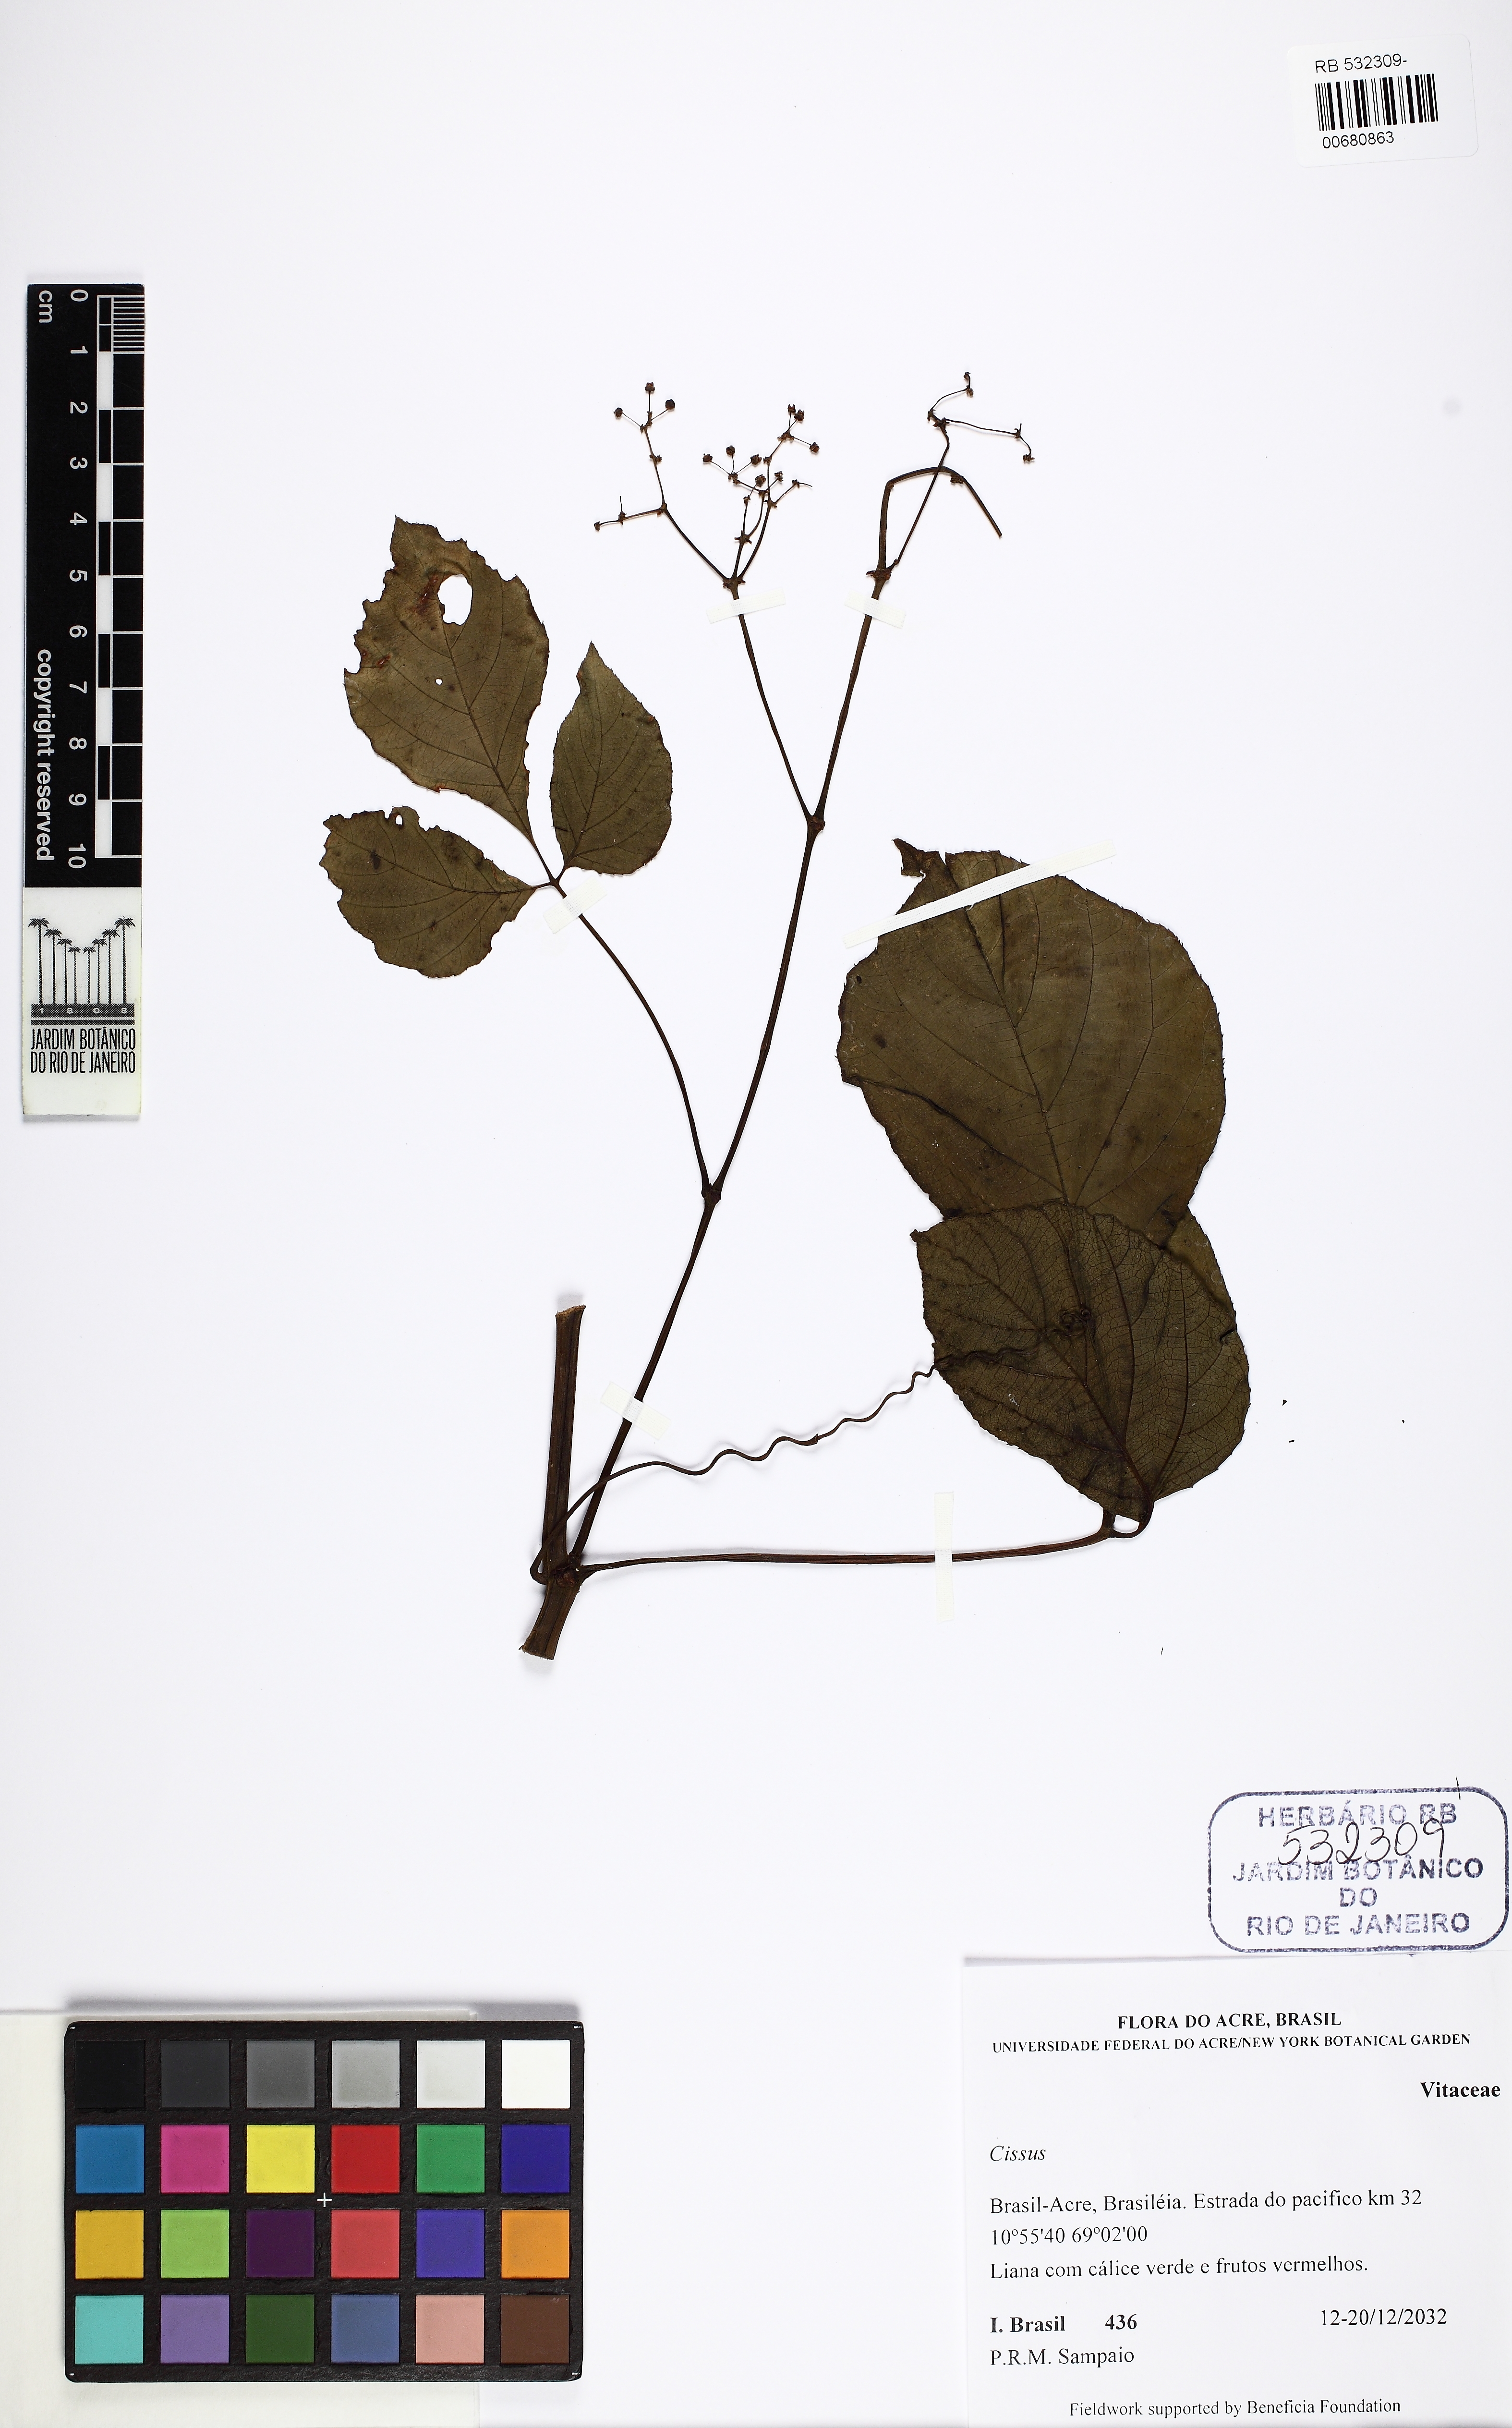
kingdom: Plantae
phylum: Tracheophyta
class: Magnoliopsida
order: Vitales
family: Vitaceae
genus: Cissus
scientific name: Cissus
